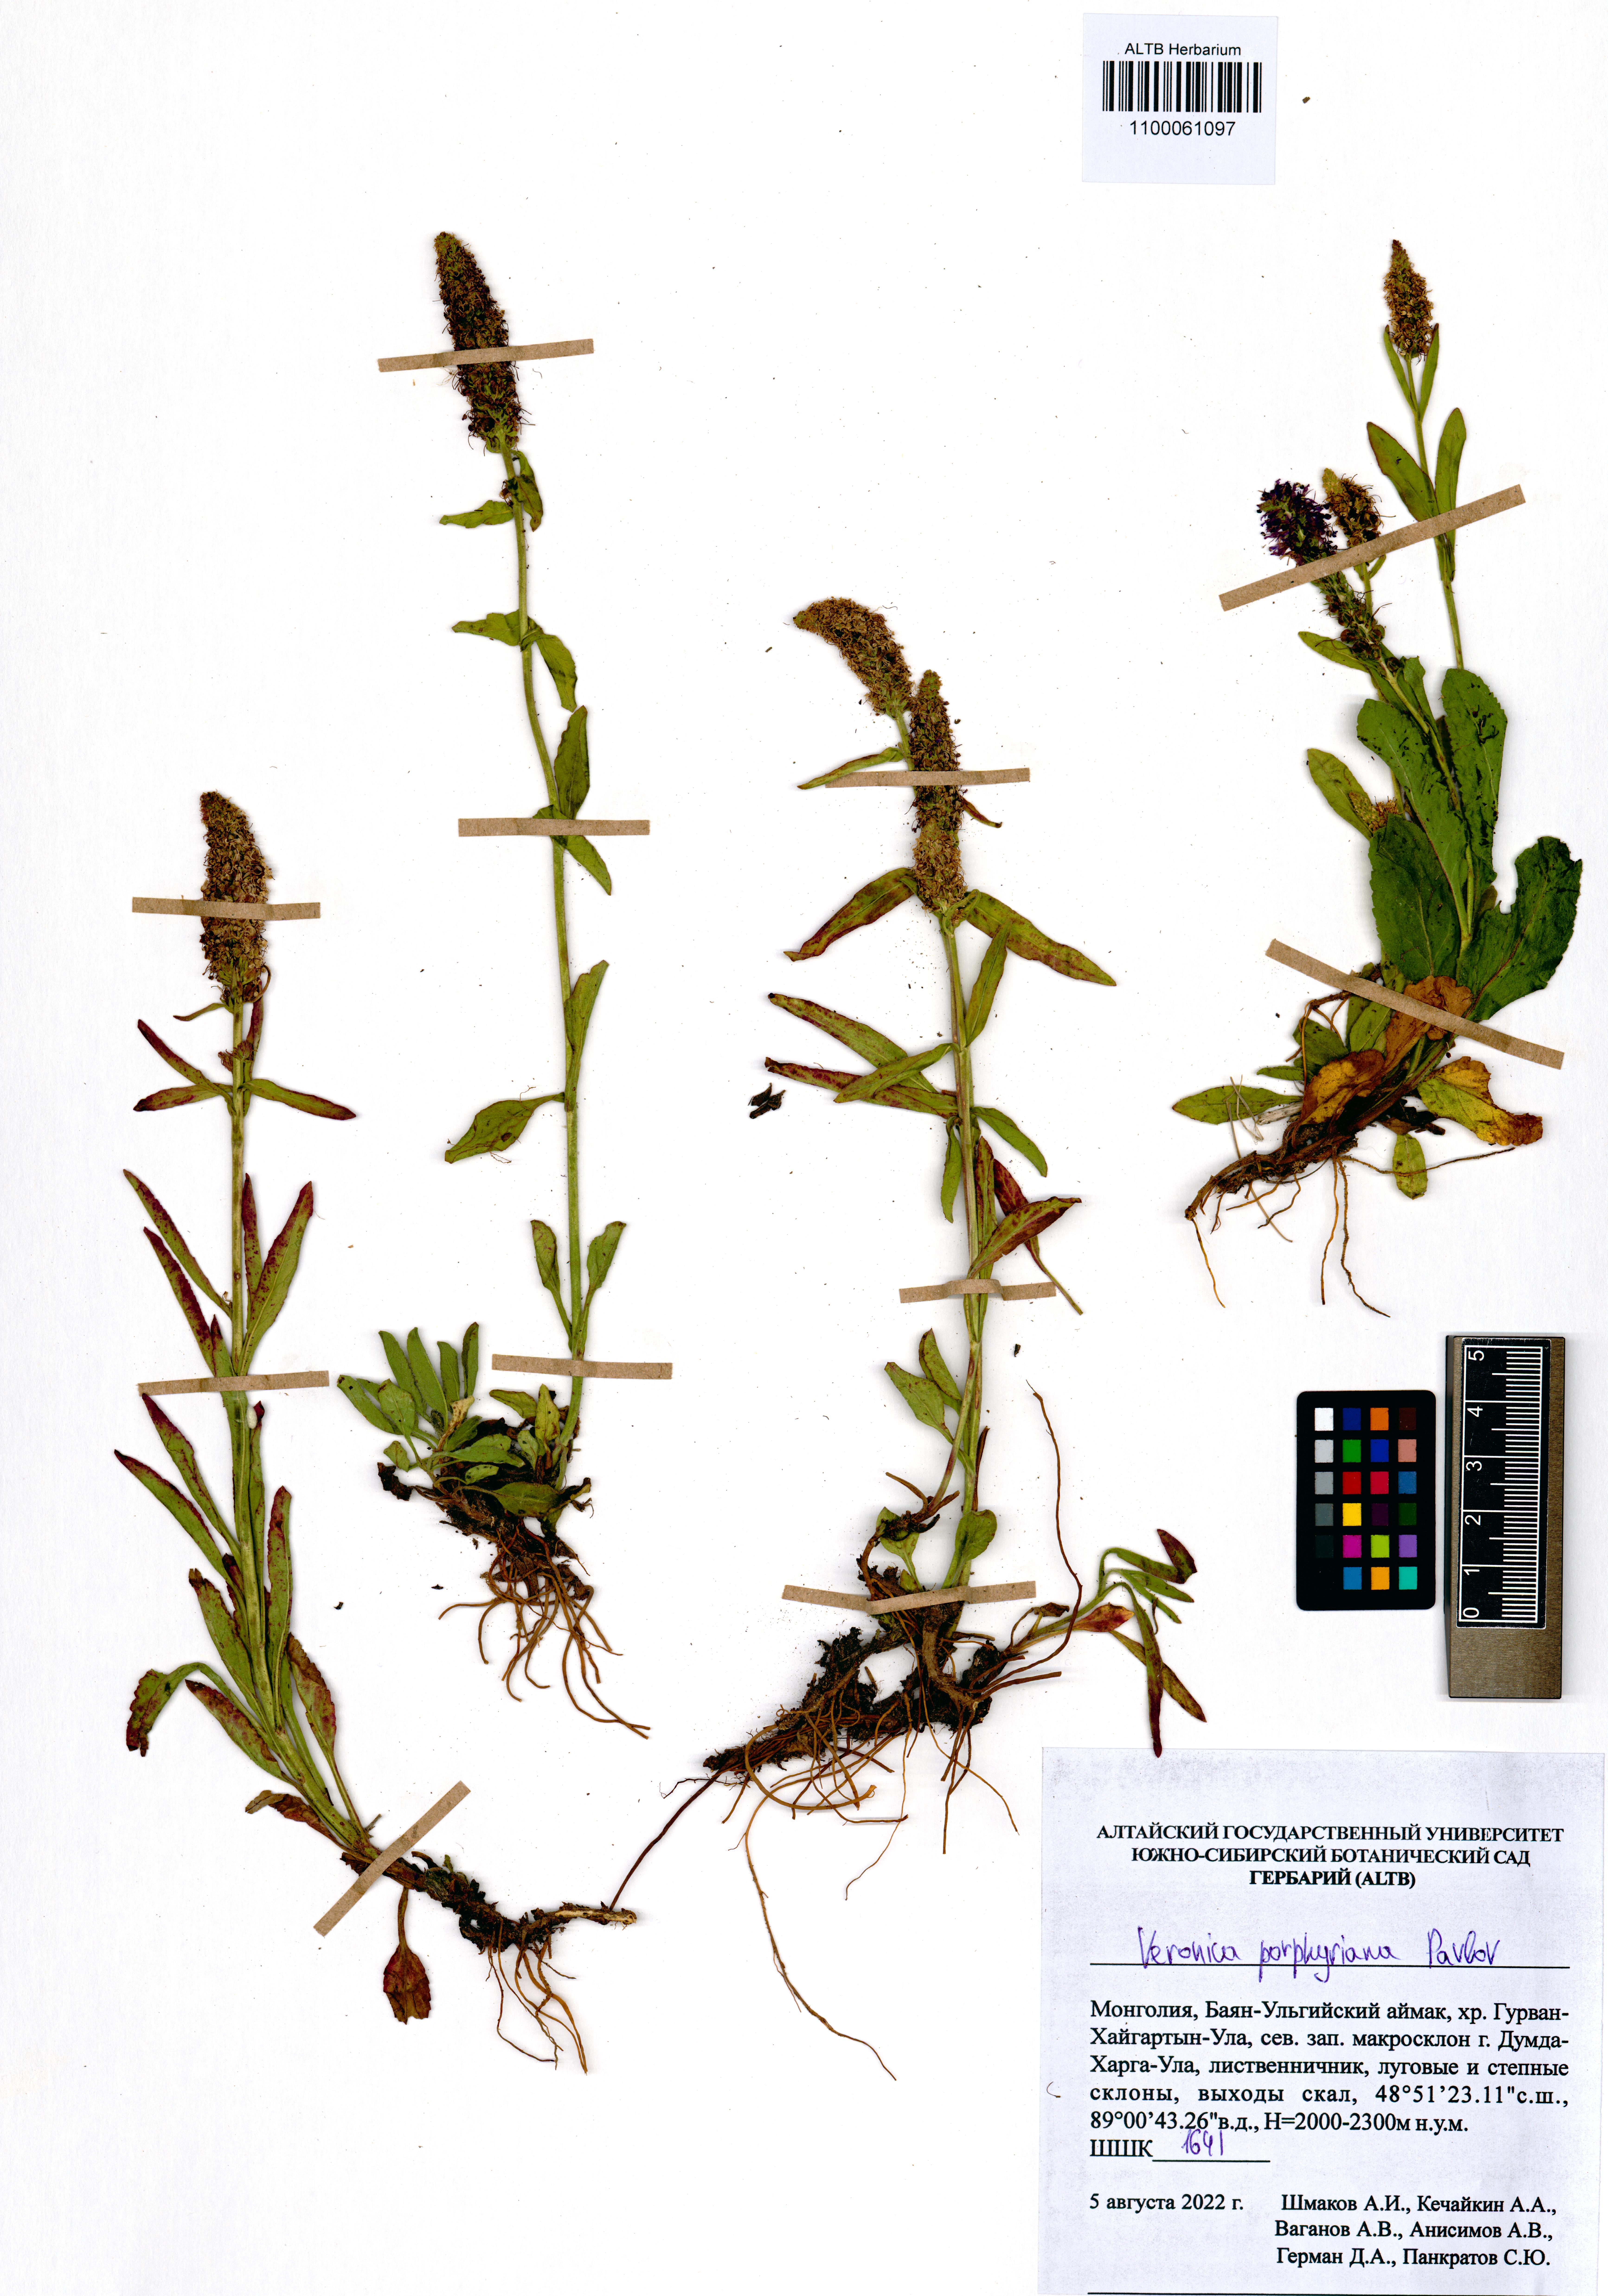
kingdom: Plantae
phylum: Tracheophyta
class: Magnoliopsida
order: Lamiales
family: Plantaginaceae
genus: Veronica
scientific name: Veronica porphyriana
